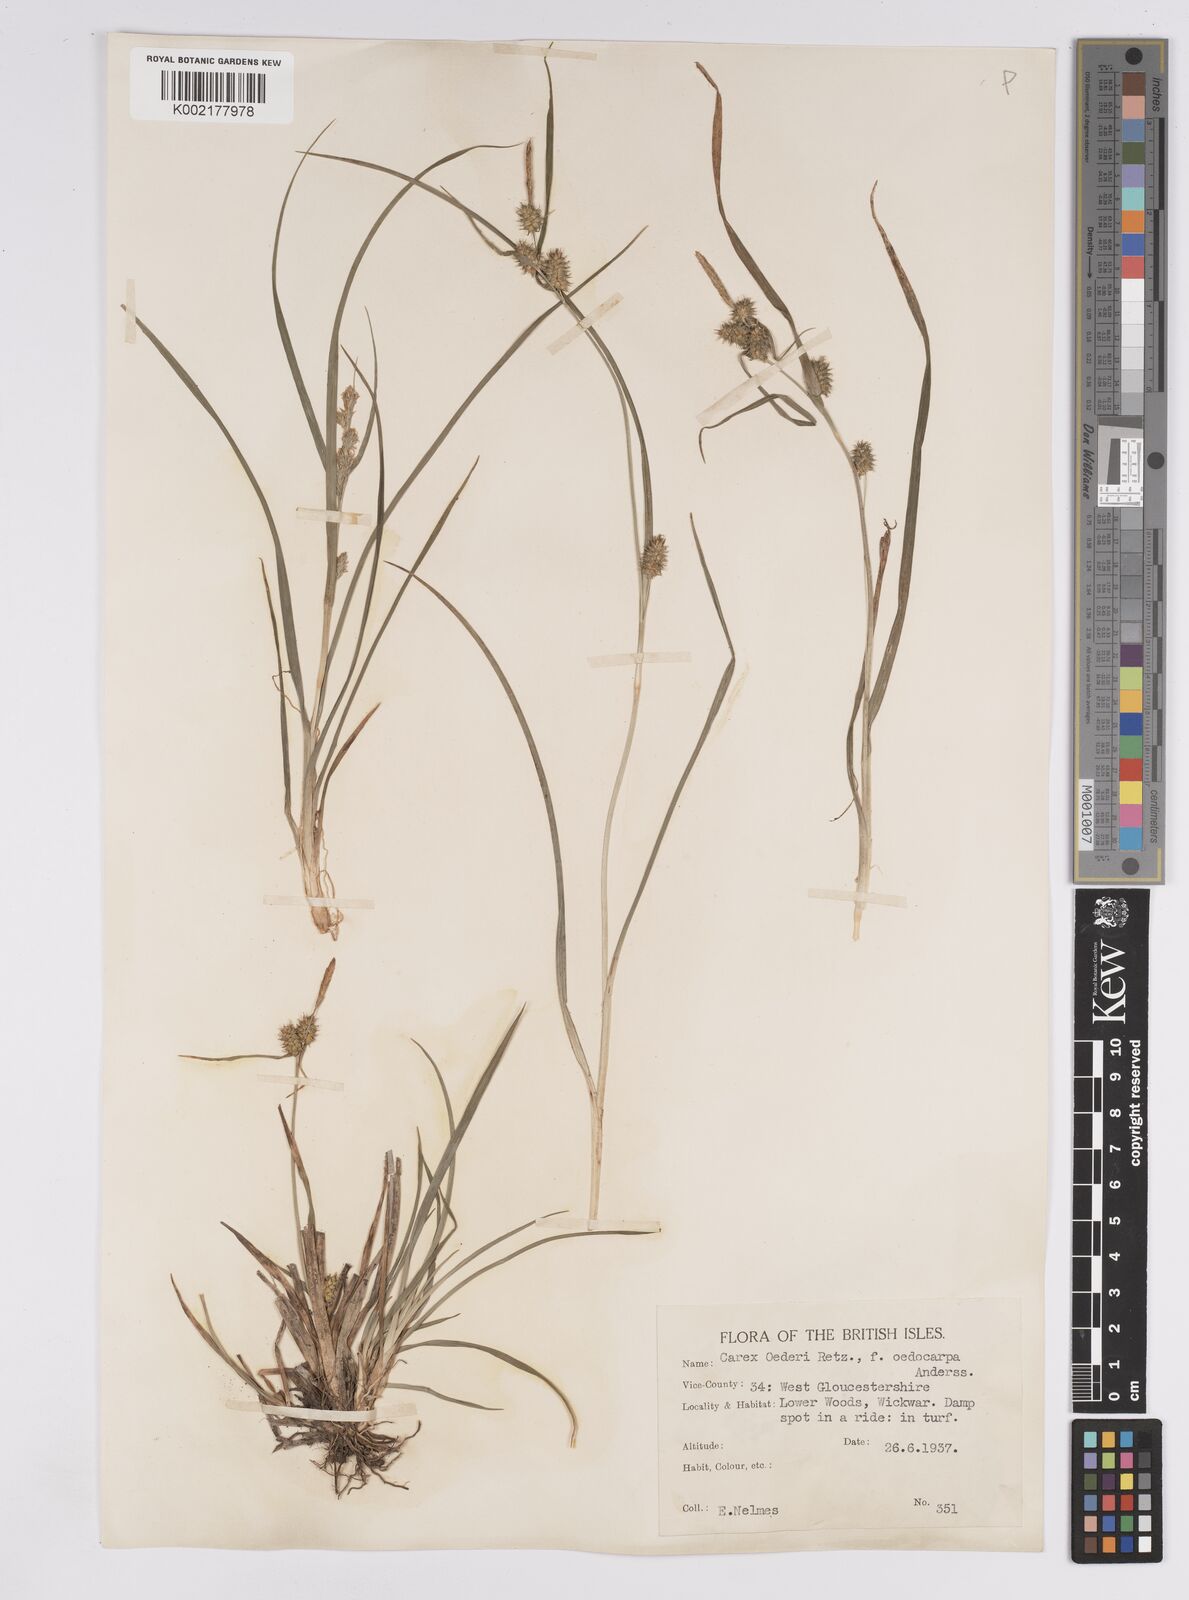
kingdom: Plantae
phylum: Tracheophyta
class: Liliopsida
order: Poales
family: Cyperaceae
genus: Carex
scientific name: Carex demissa
